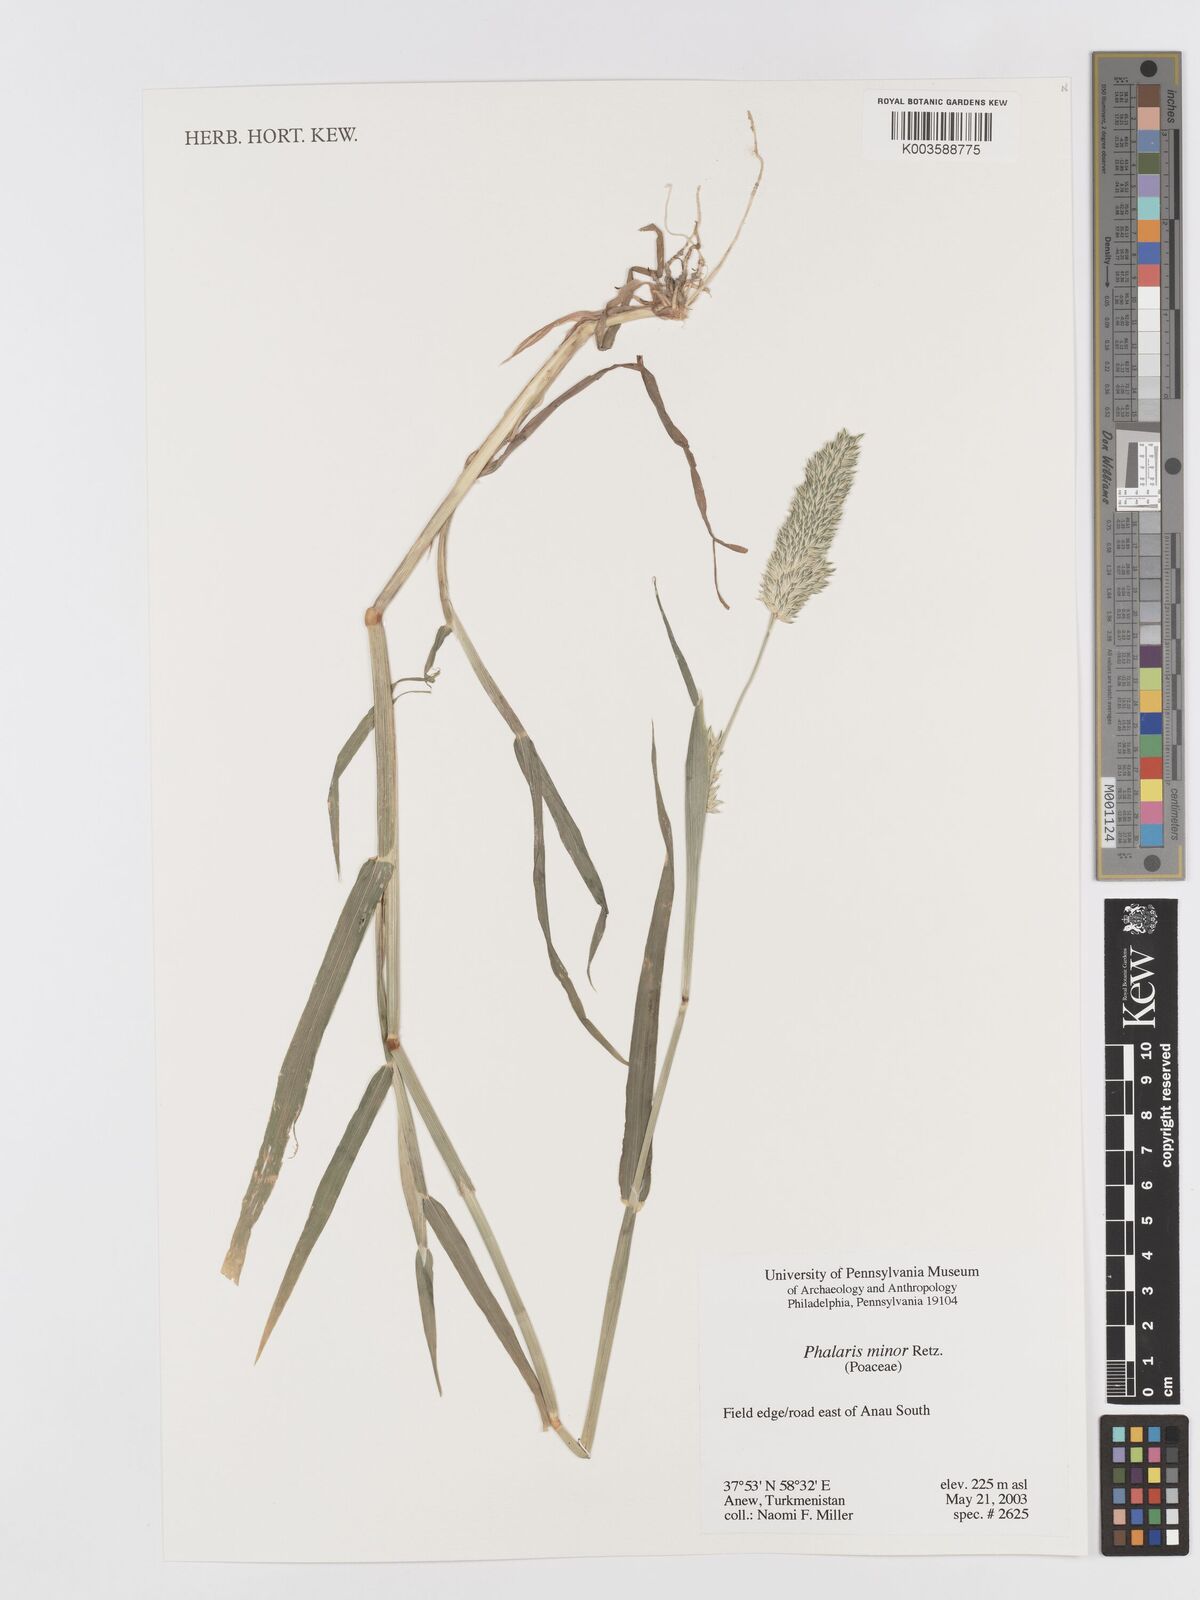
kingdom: Plantae
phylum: Tracheophyta
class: Liliopsida
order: Poales
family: Poaceae
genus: Phalaris
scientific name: Phalaris minor
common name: Littleseed canarygrass
